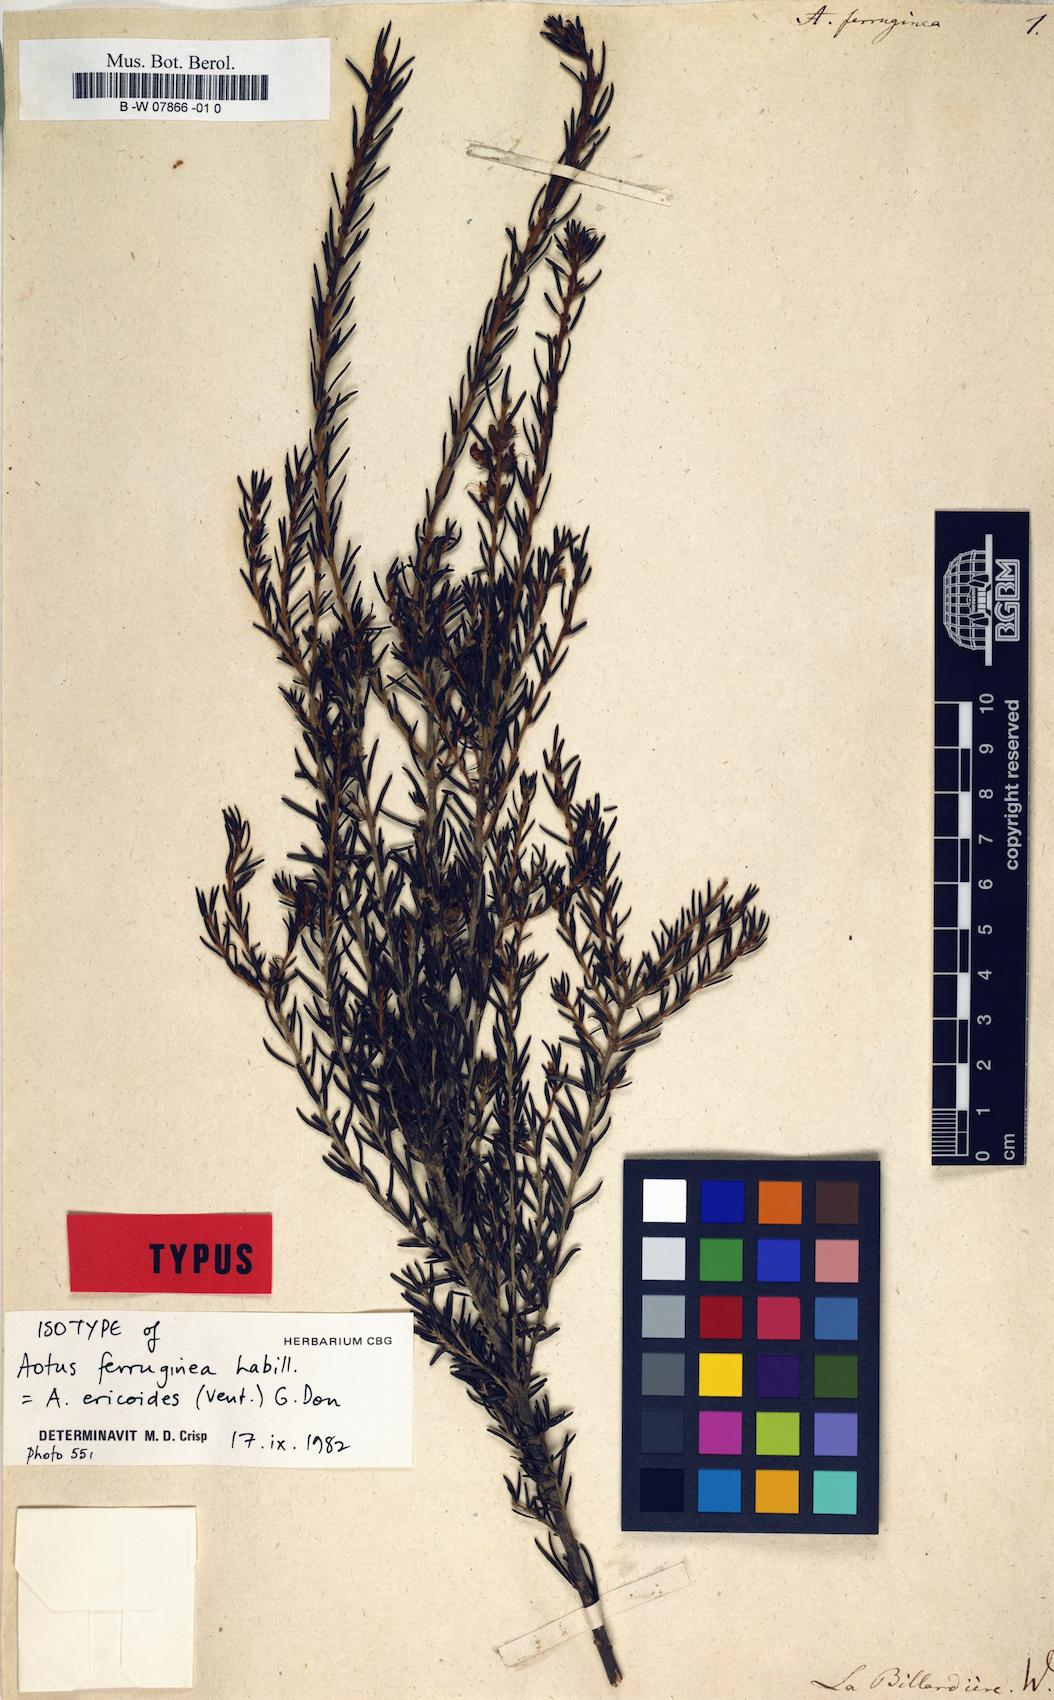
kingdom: Plantae
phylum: Tracheophyta
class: Magnoliopsida
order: Fabales
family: Fabaceae
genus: Aotus
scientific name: Aotus ericoides
